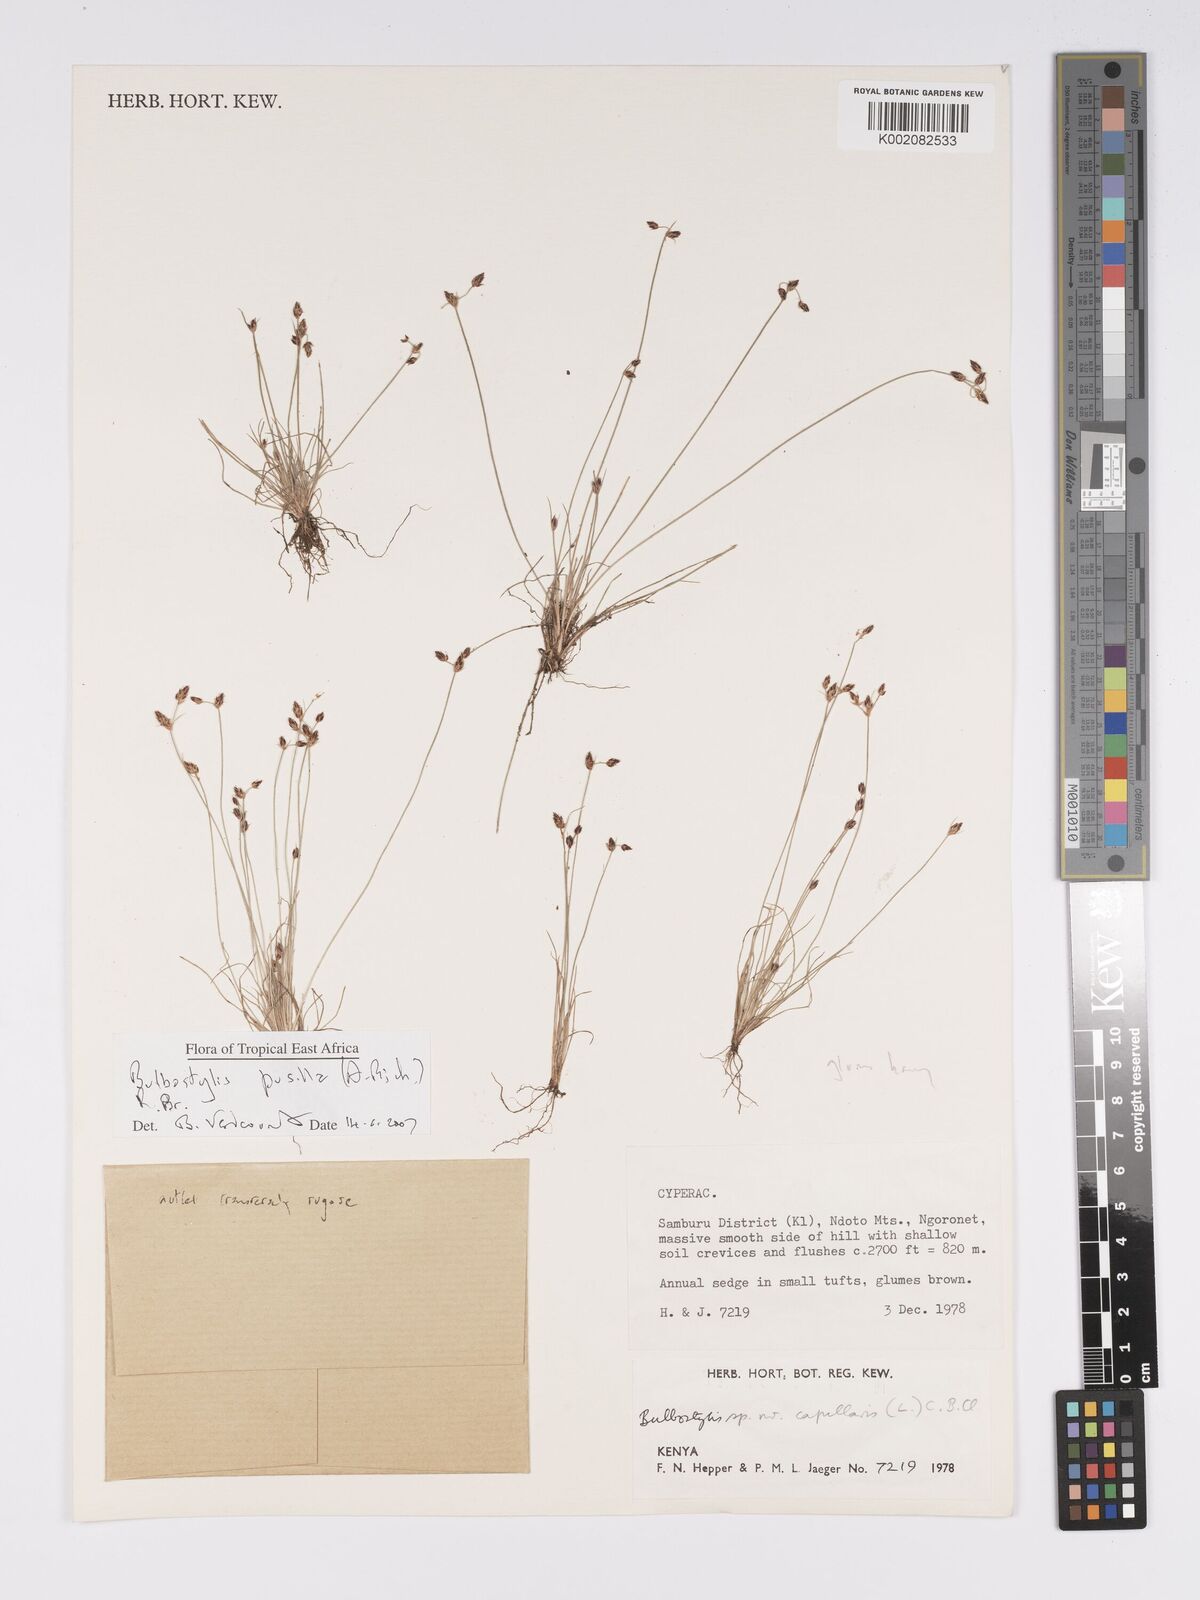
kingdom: Plantae
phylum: Tracheophyta
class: Liliopsida
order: Poales
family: Cyperaceae
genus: Bulbostylis
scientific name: Bulbostylis pusilla
